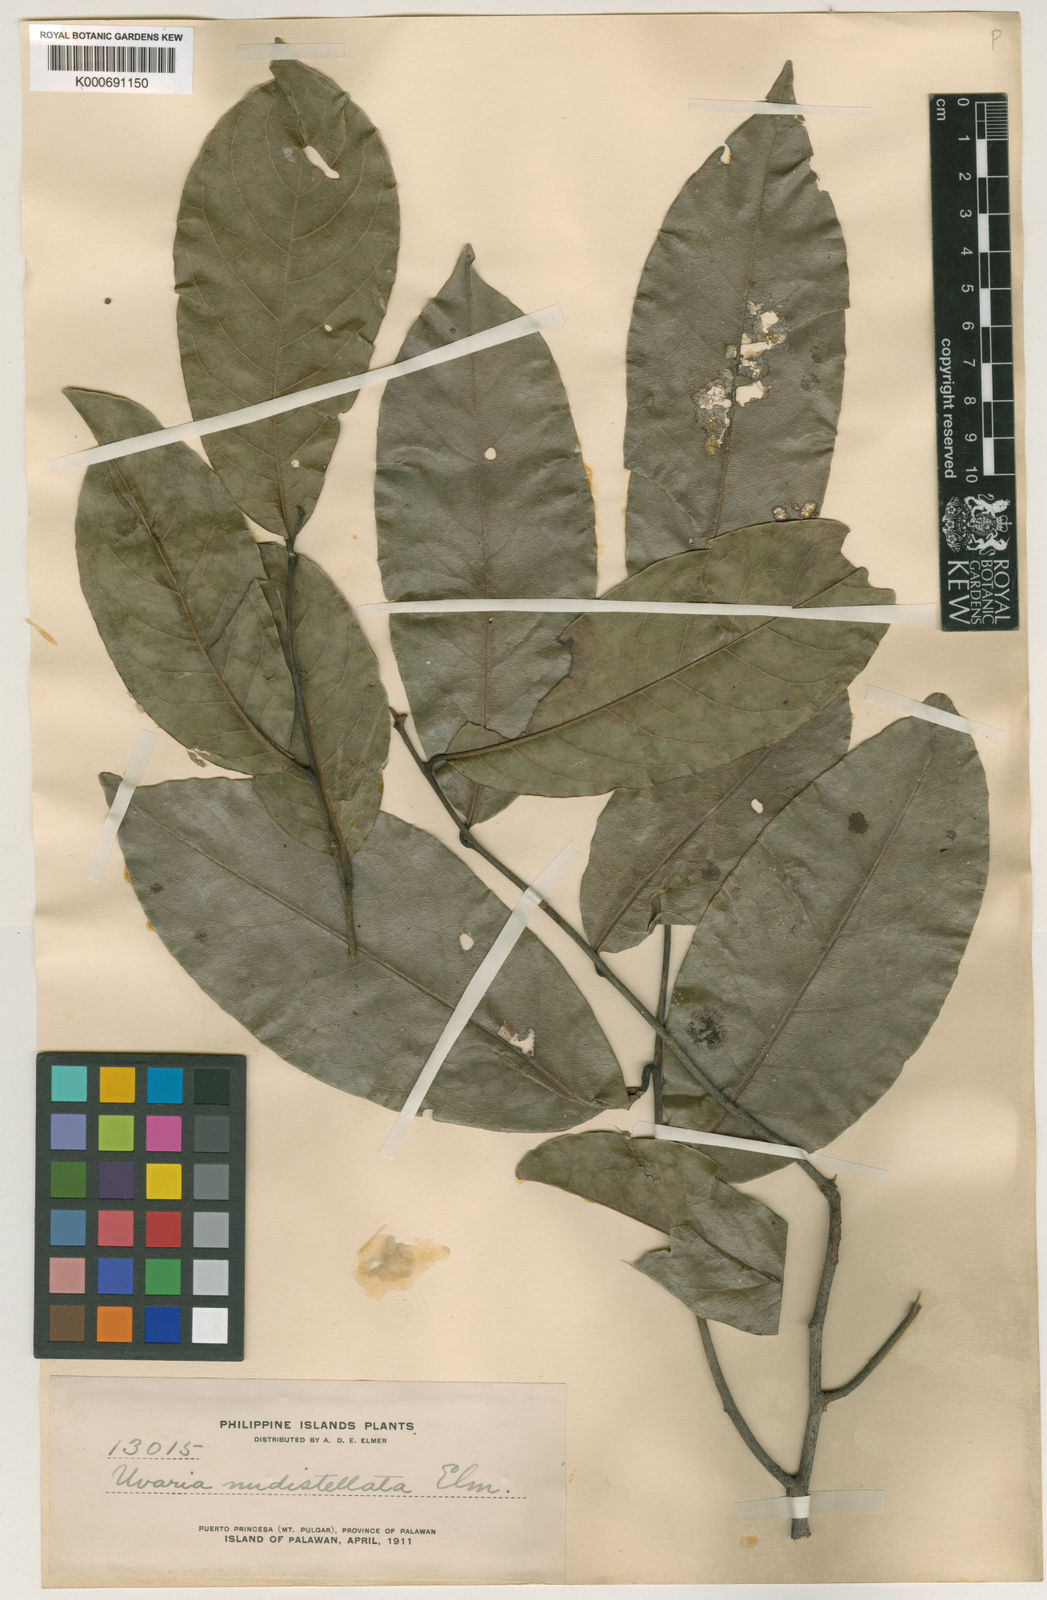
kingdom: Plantae
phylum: Tracheophyta
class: Magnoliopsida
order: Magnoliales
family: Annonaceae
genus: Uvaria
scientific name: Uvaria concava
